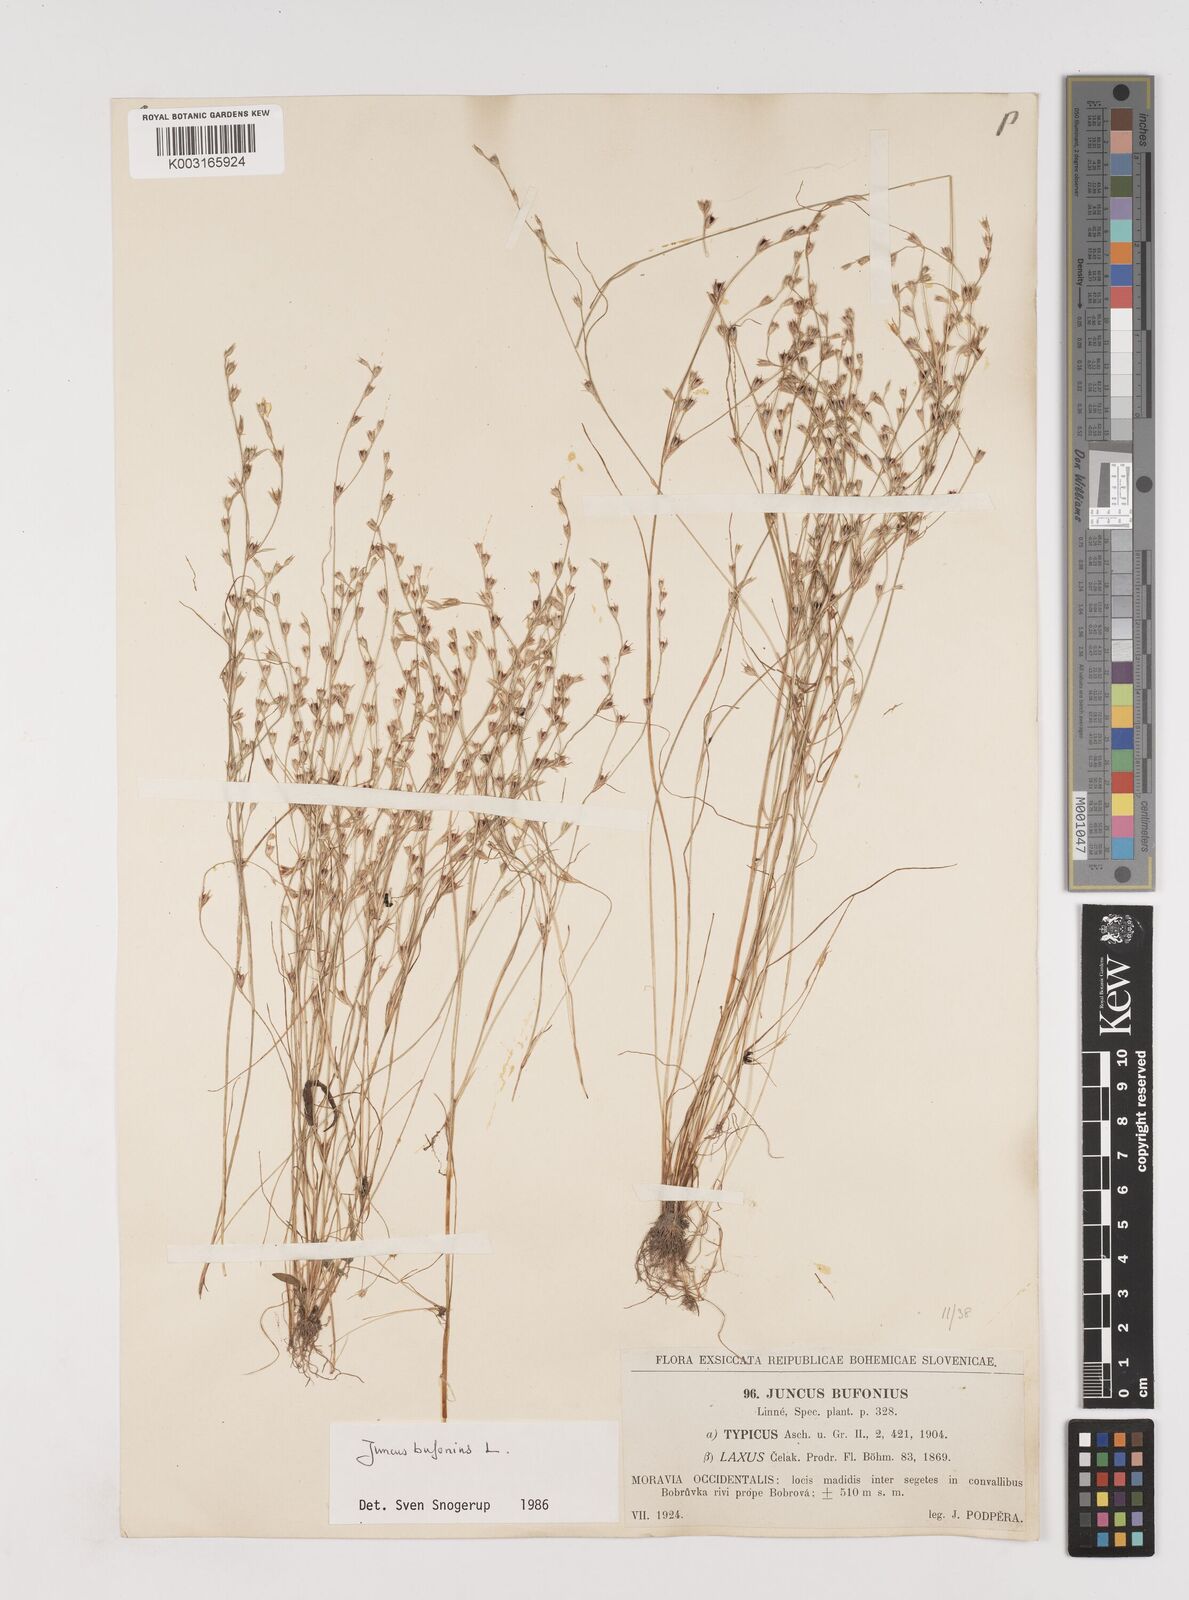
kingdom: Plantae
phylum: Tracheophyta
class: Liliopsida
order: Poales
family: Juncaceae
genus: Juncus
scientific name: Juncus bufonius
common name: Toad rush
